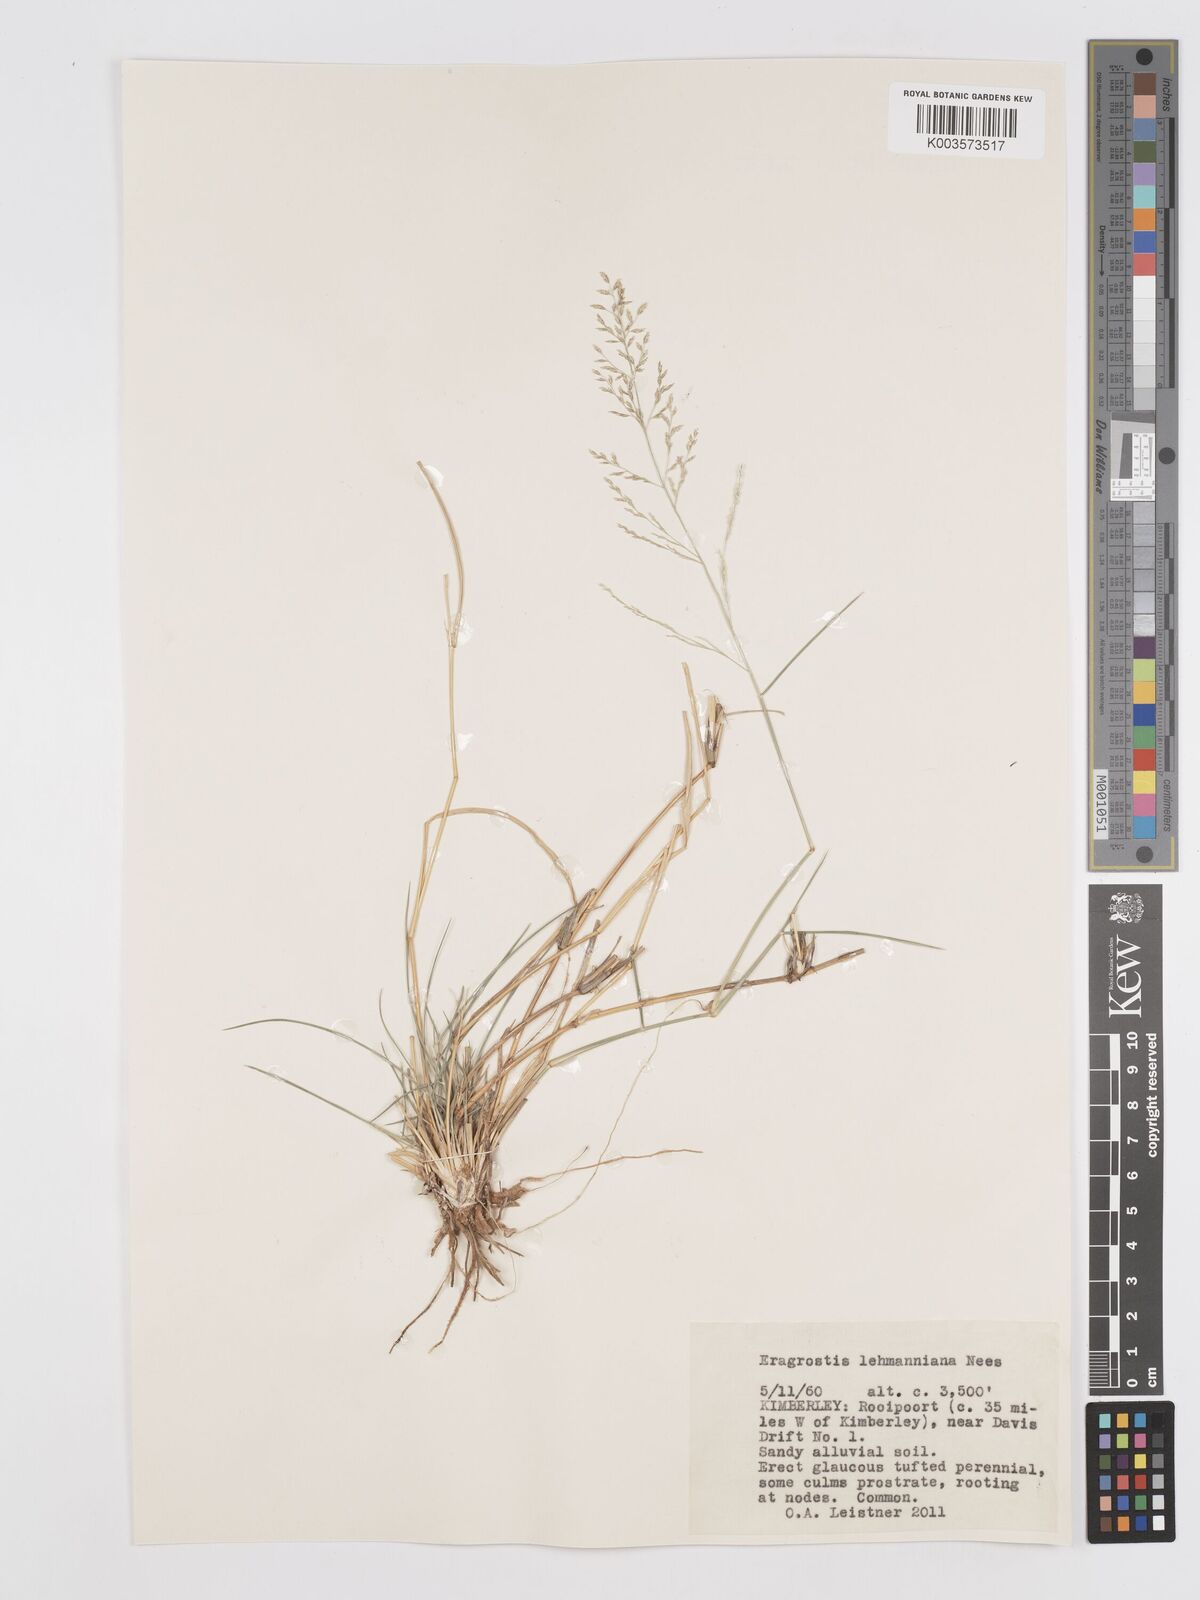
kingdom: Plantae
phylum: Tracheophyta
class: Liliopsida
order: Poales
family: Poaceae
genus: Eragrostis
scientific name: Eragrostis lehmanniana
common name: Lehmann lovegrass
